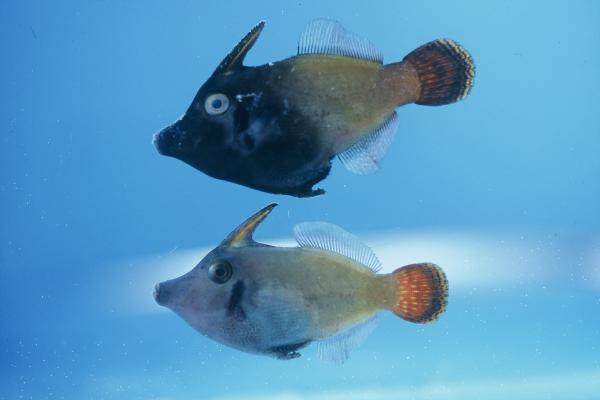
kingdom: Animalia
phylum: Chordata
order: Tetraodontiformes
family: Monacanthidae
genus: Pervagor
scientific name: Pervagor janthinosoma
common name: Blackbar filefish
